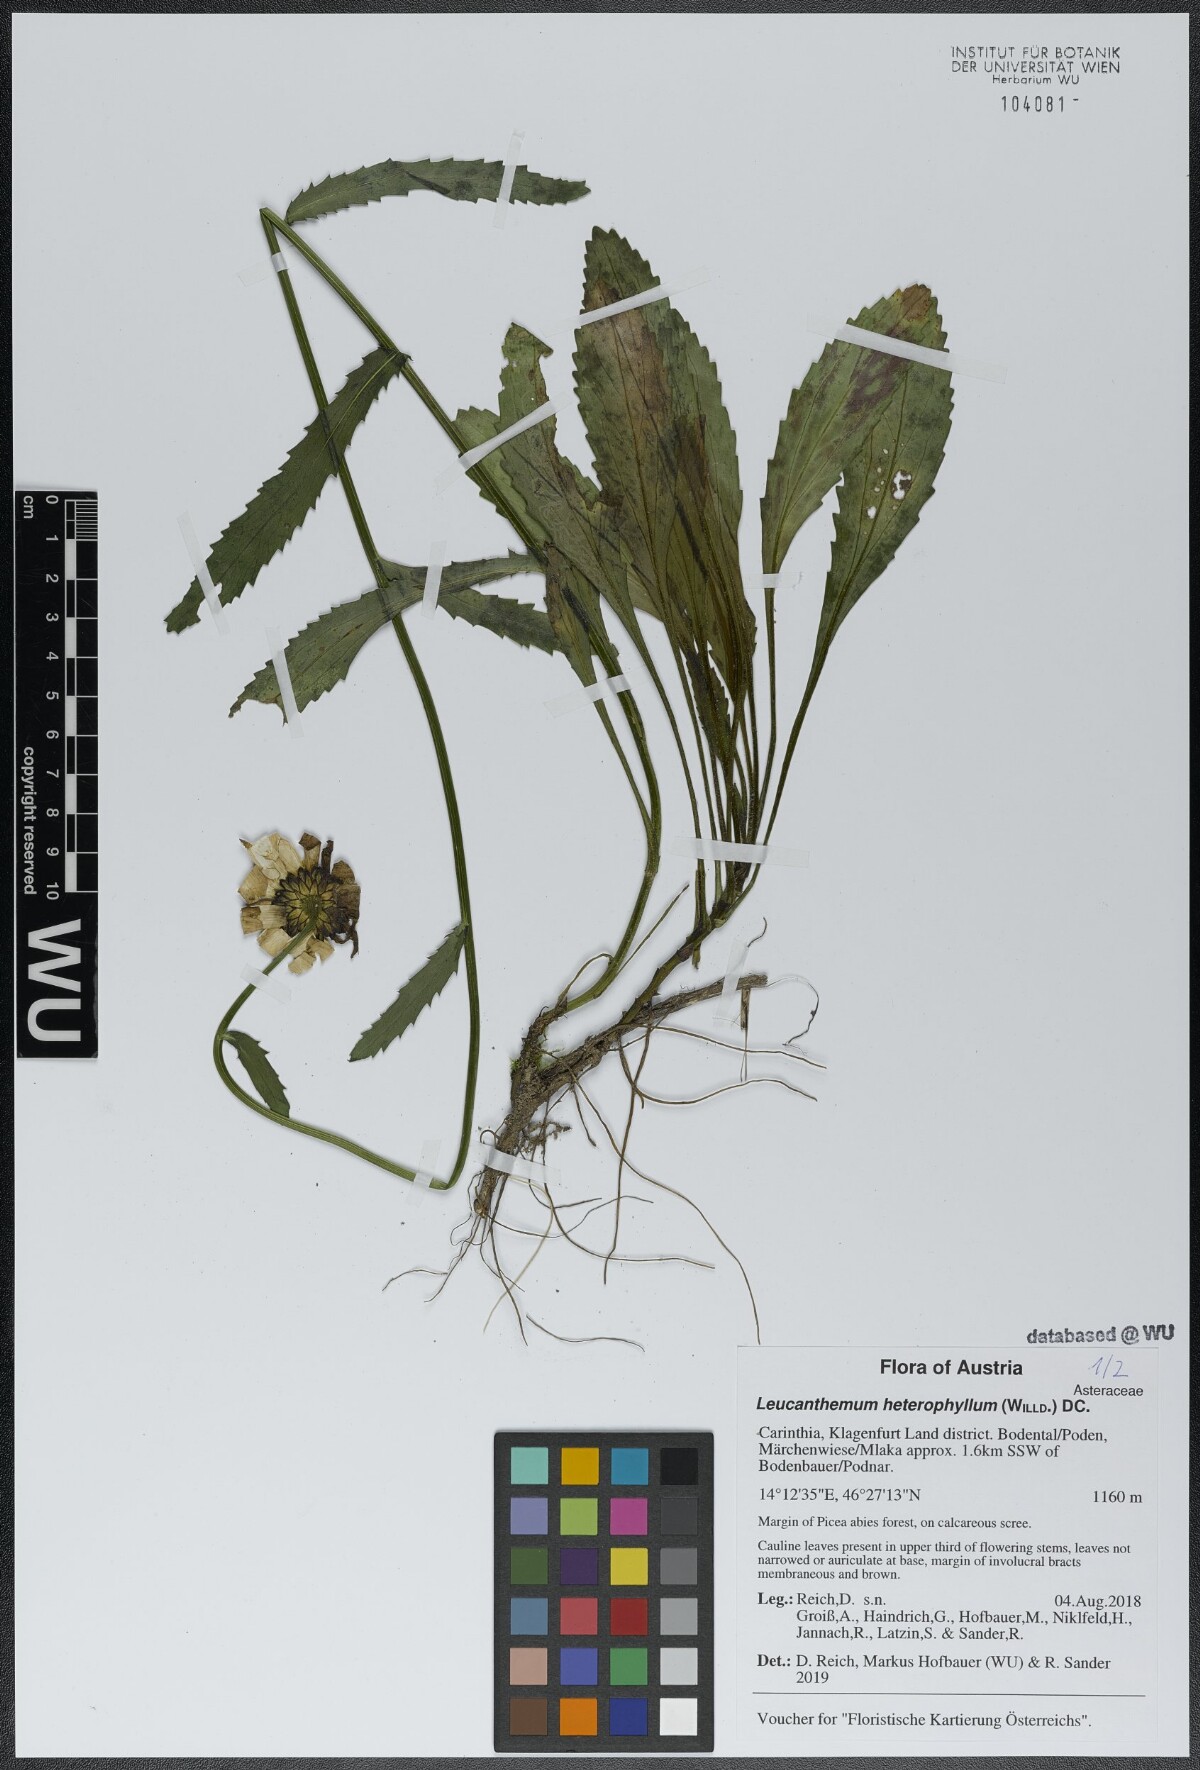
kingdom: Plantae
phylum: Tracheophyta
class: Magnoliopsida
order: Asterales
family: Asteraceae
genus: Leucanthemum
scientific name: Leucanthemum heterophyllum
